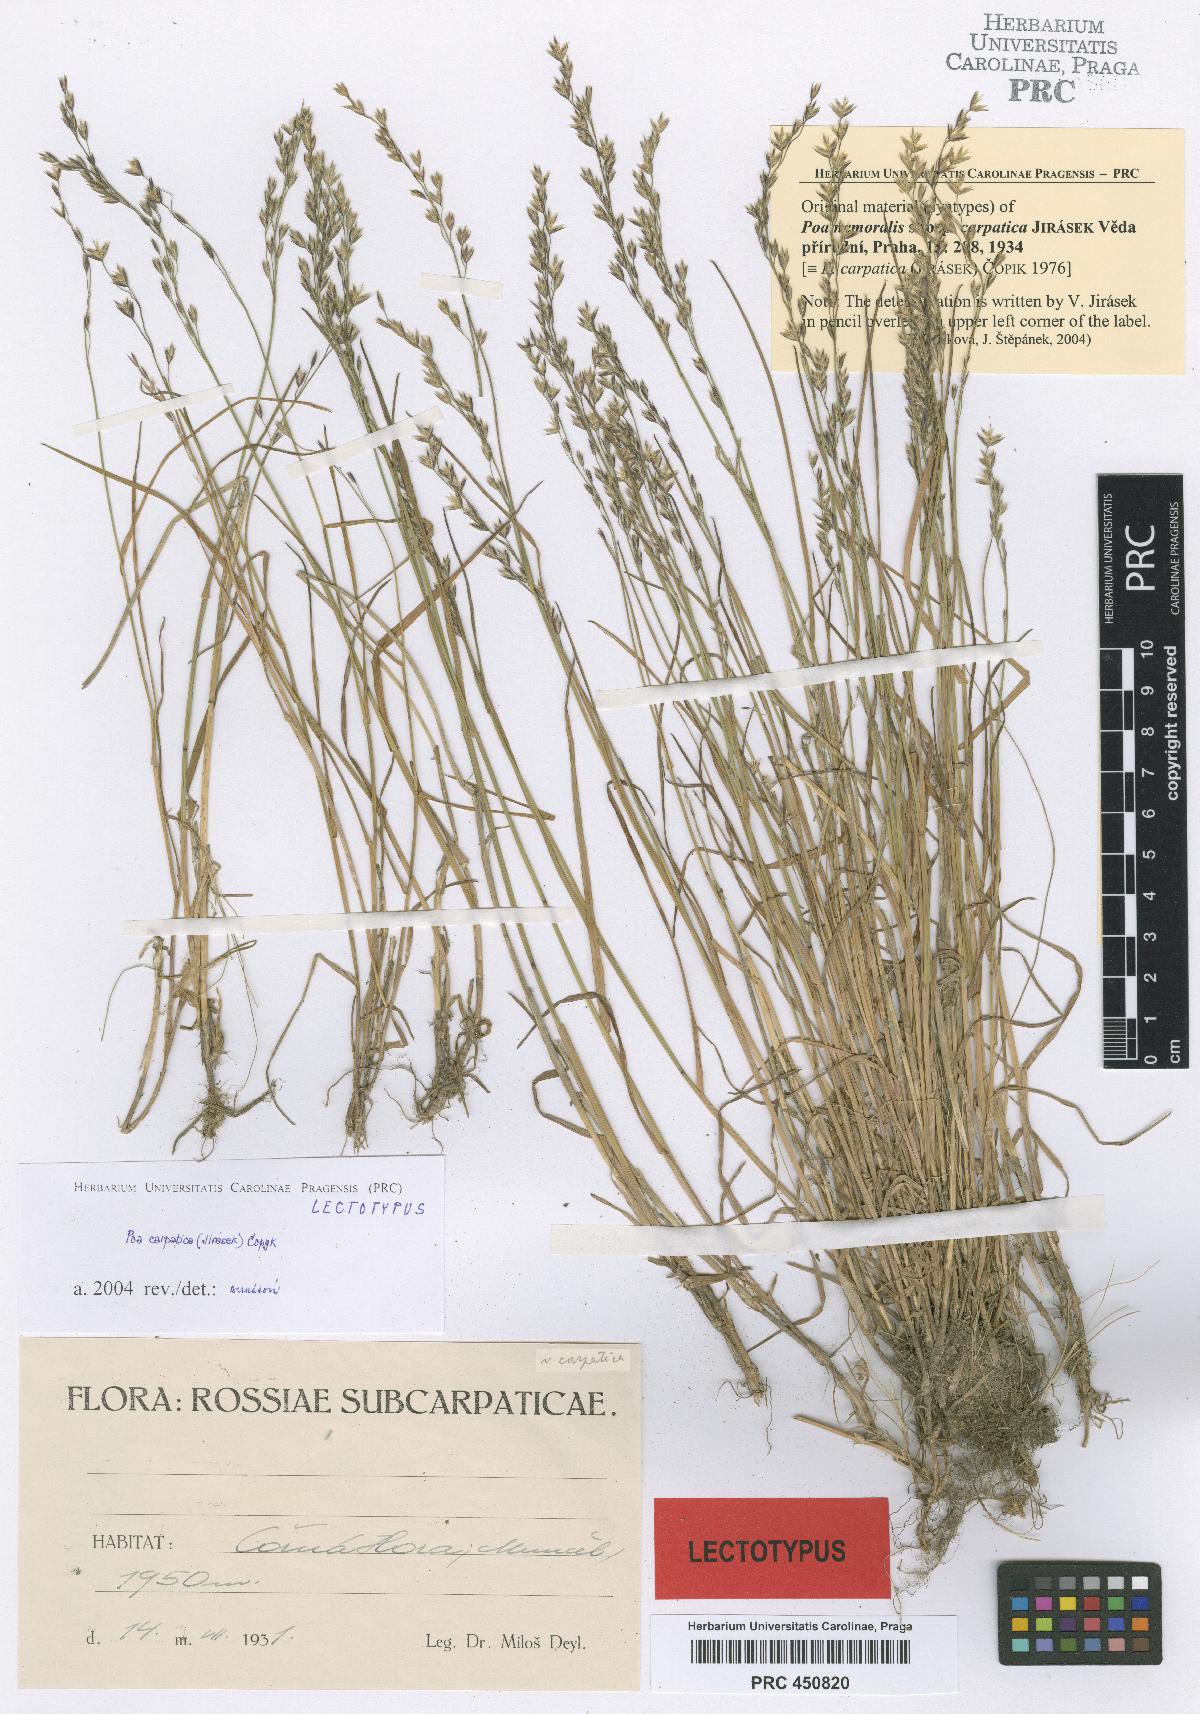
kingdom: Plantae
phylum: Tracheophyta
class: Liliopsida
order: Poales
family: Poaceae
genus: Poa
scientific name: Poa carpatica
